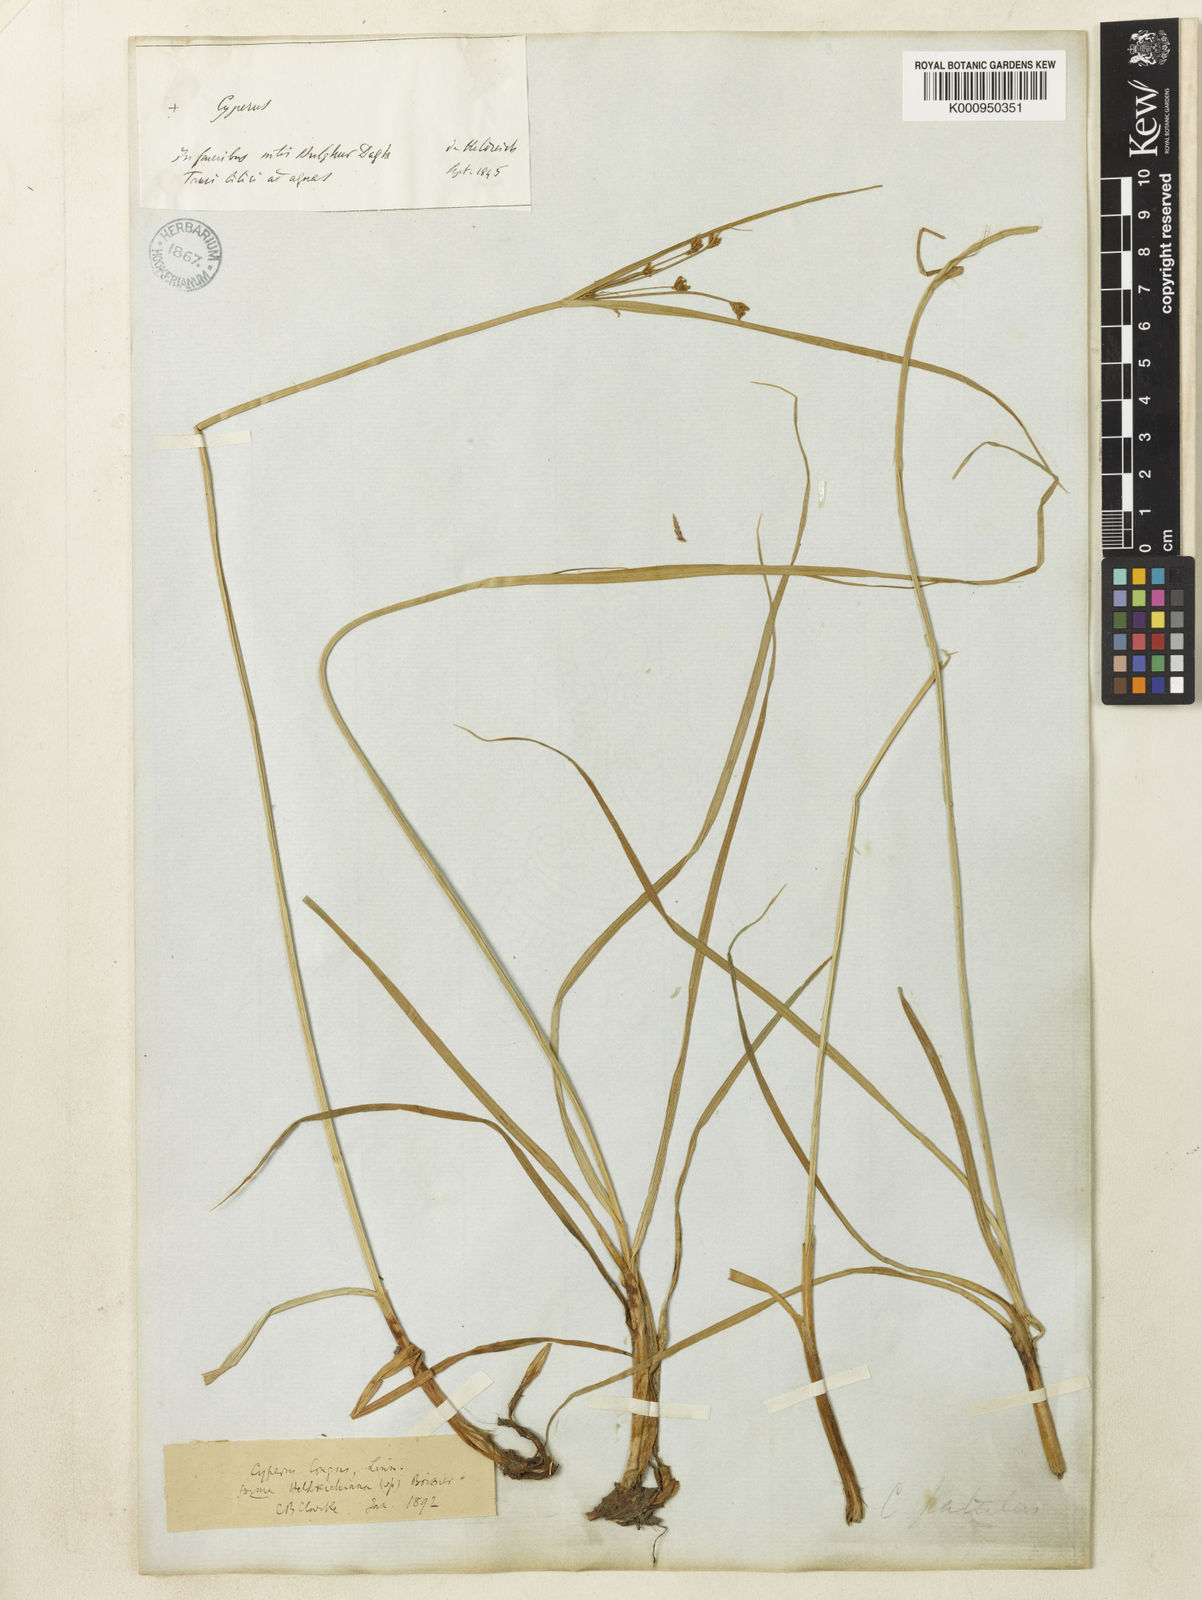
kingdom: Plantae
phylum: Tracheophyta
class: Liliopsida
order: Poales
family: Cyperaceae
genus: Cyperus
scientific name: Cyperus longus
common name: Galingale
